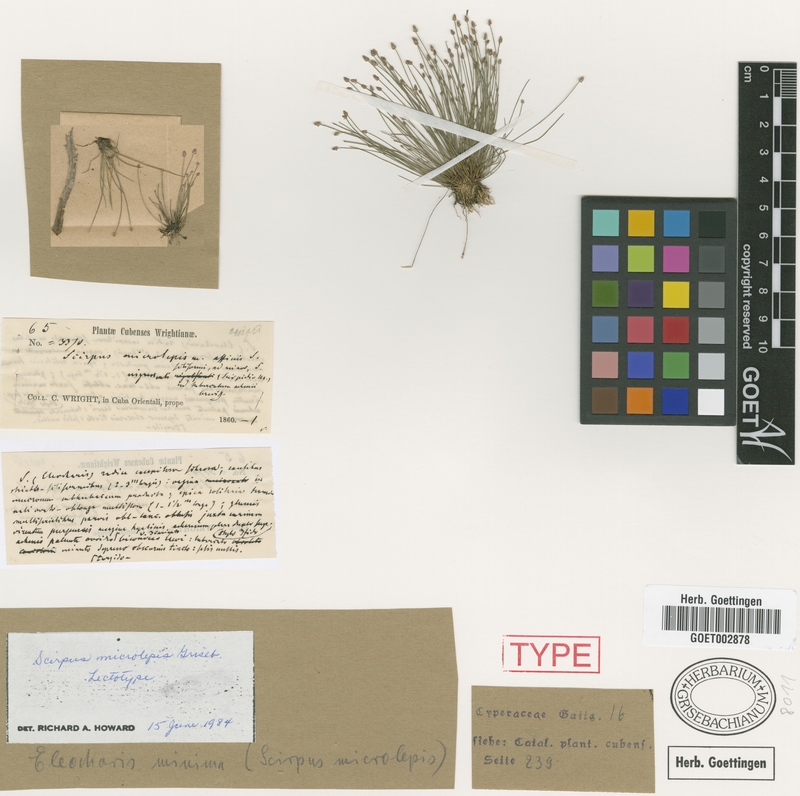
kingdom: Plantae
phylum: Tracheophyta
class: Liliopsida
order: Poales
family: Cyperaceae
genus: Eleocharis
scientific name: Eleocharis microlepis
